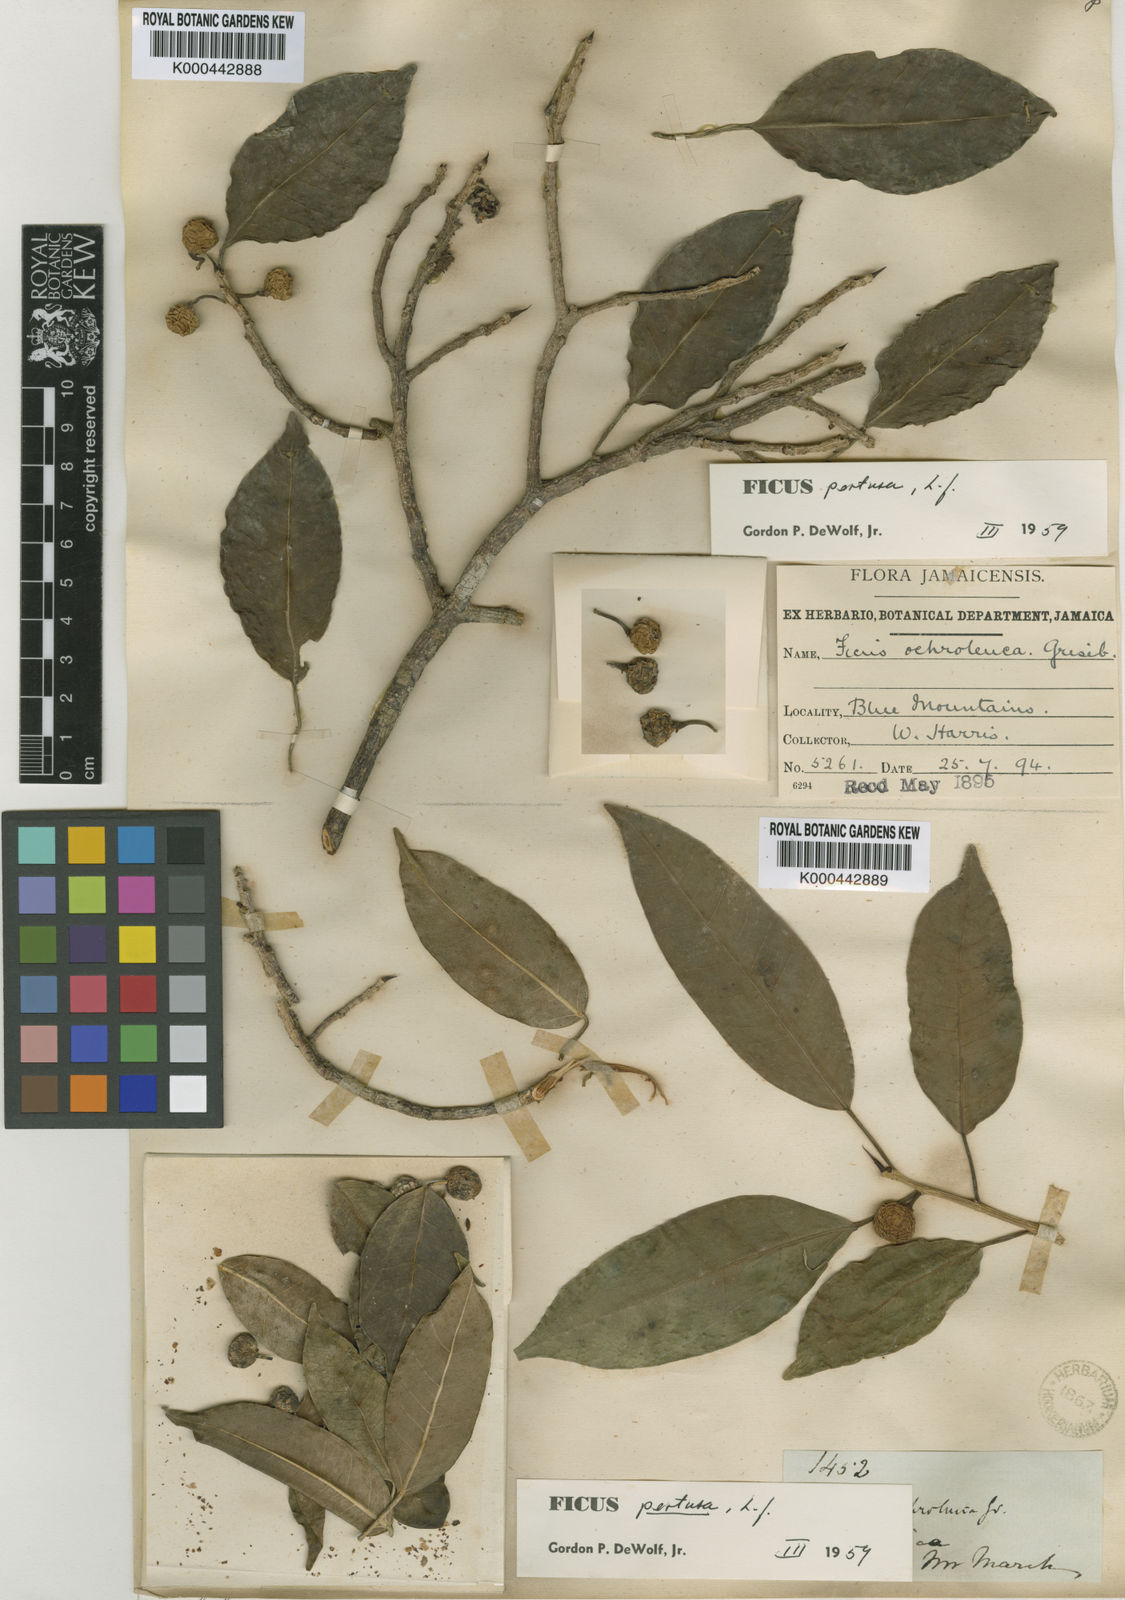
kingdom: Plantae
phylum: Tracheophyta
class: Magnoliopsida
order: Rosales
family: Moraceae
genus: Ficus
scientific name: Ficus pertusa
